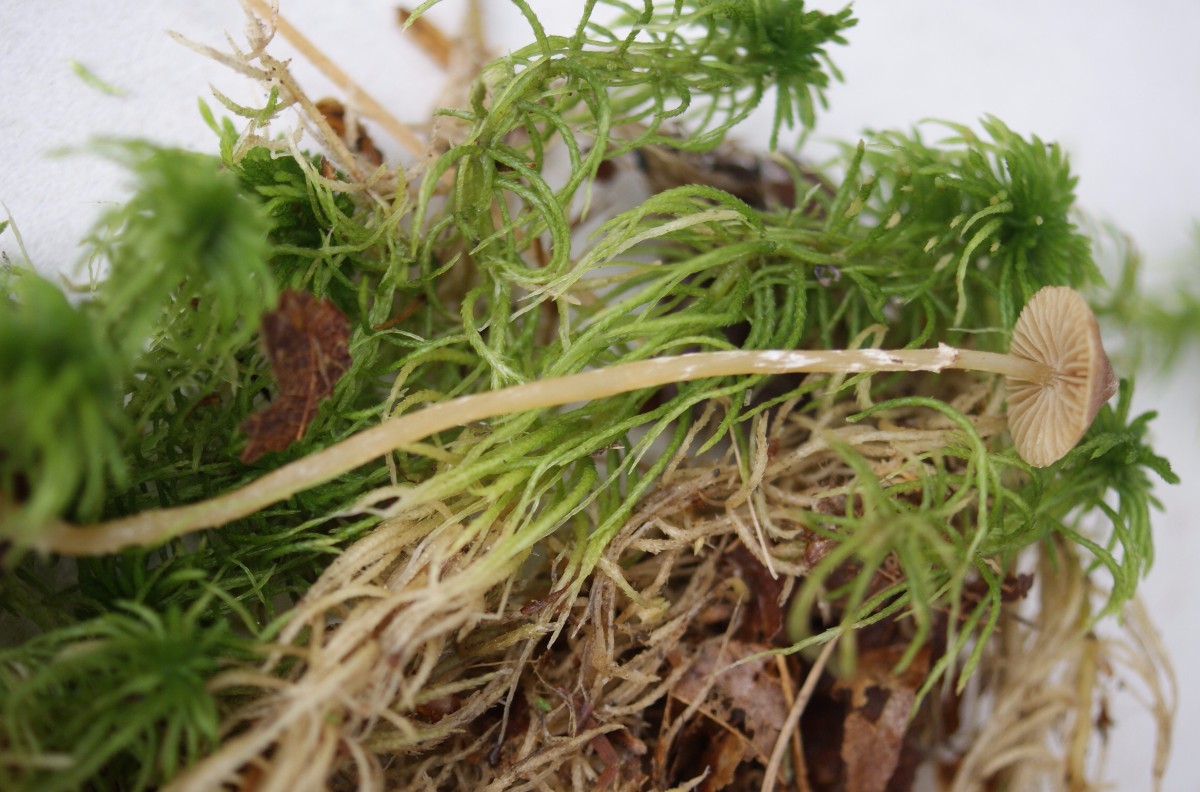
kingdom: Fungi
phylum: Basidiomycota
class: Agaricomycetes
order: Agaricales
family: Hymenogastraceae
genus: Galerina
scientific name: Galerina paludosa
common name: mose-hjelmhat
